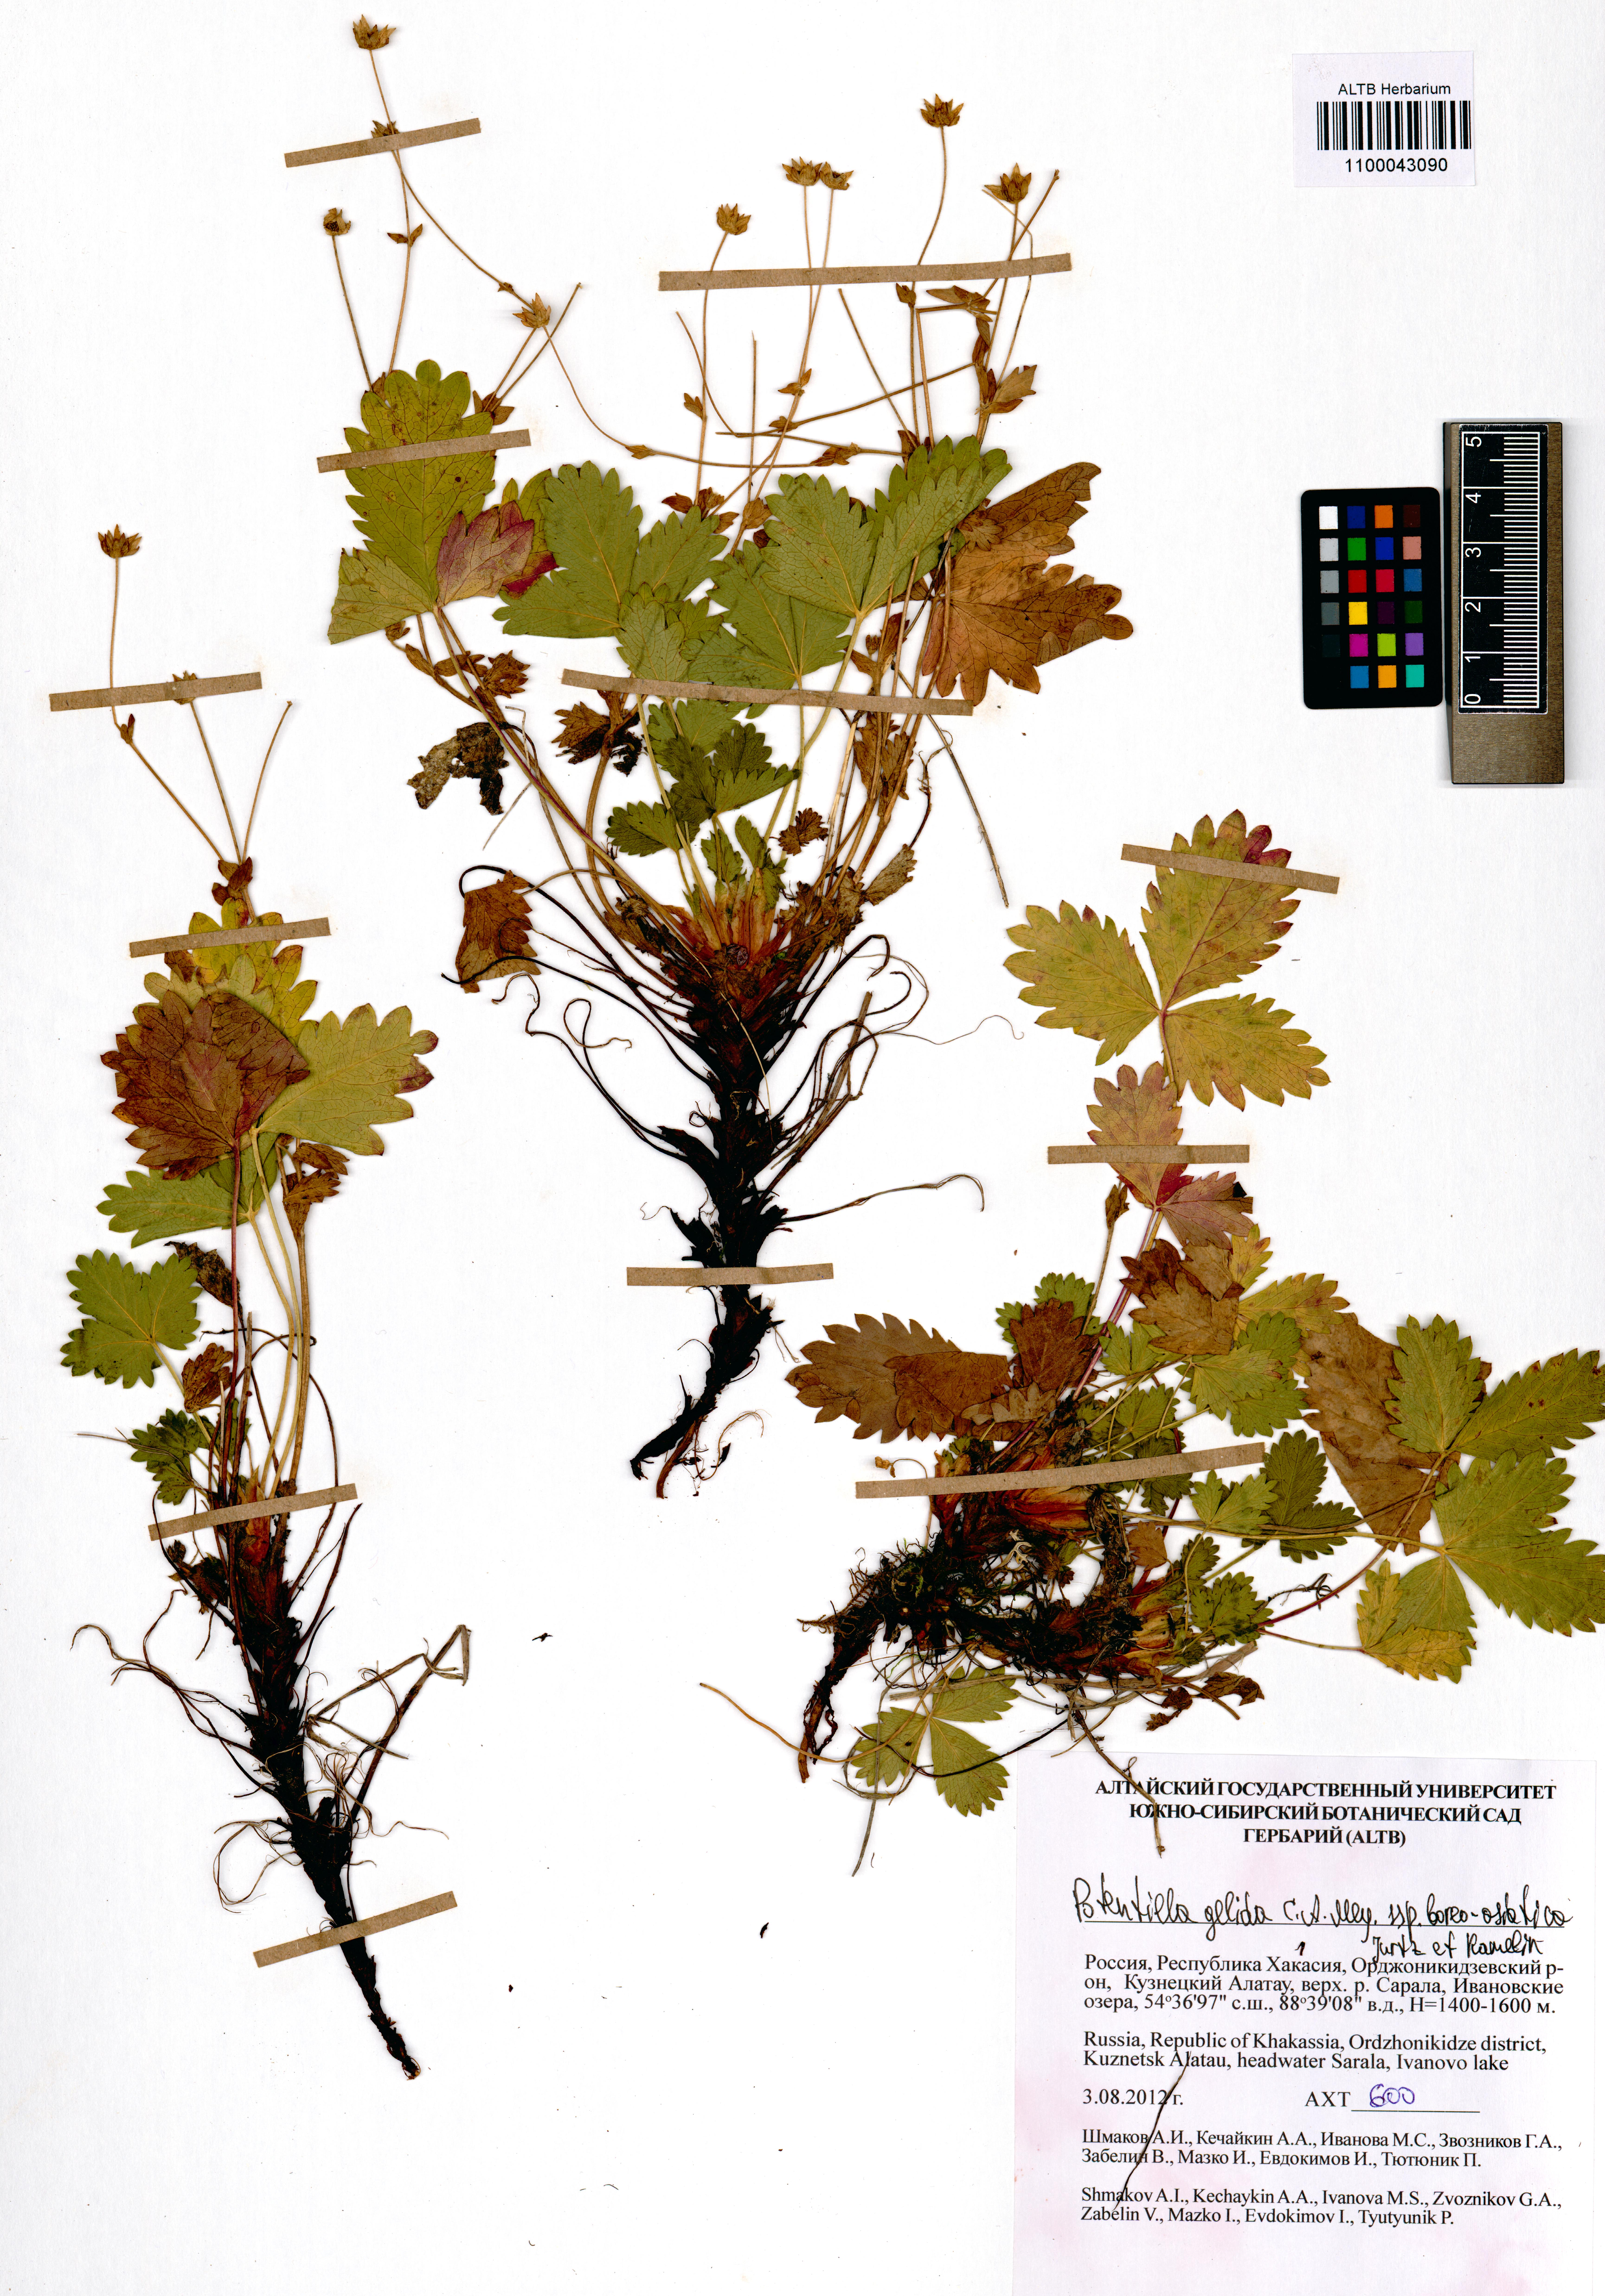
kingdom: Plantae
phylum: Tracheophyta
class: Magnoliopsida
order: Rosales
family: Rosaceae
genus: Potentilla
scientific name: Potentilla crantzii
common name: Alpine cinquefoil
